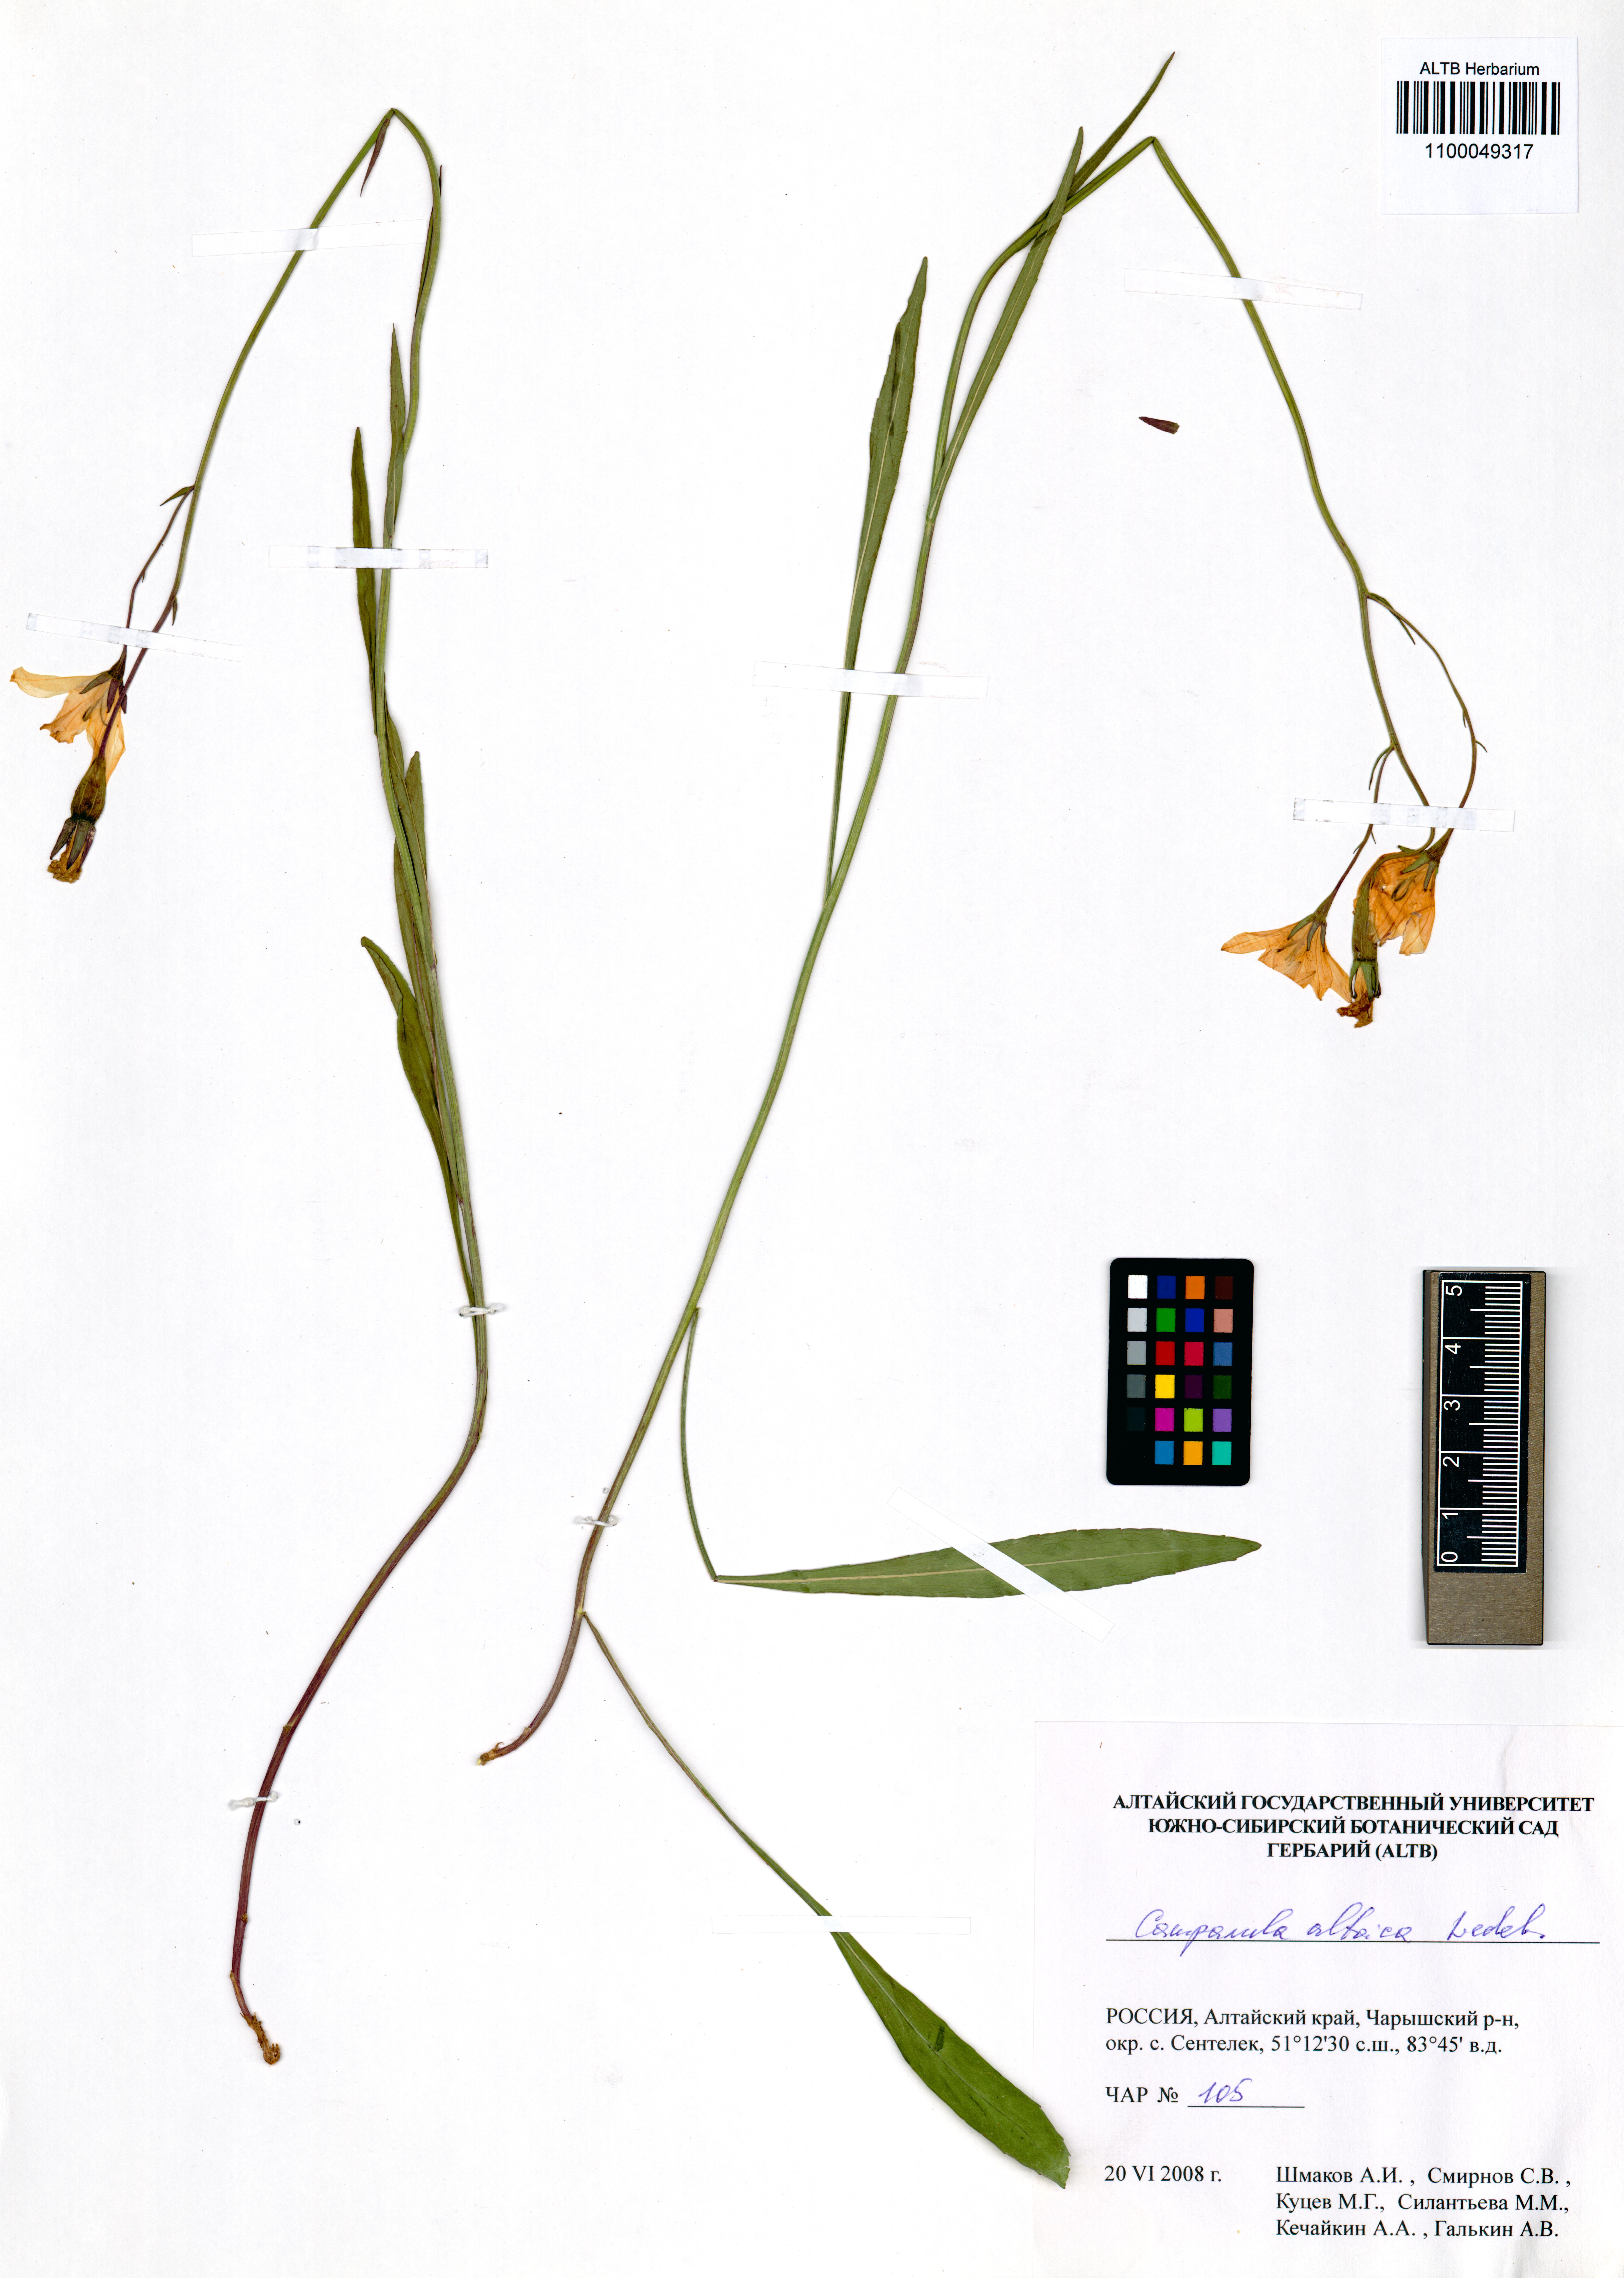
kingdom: Plantae
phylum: Tracheophyta
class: Magnoliopsida
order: Asterales
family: Campanulaceae
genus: Campanula
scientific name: Campanula stevenii
